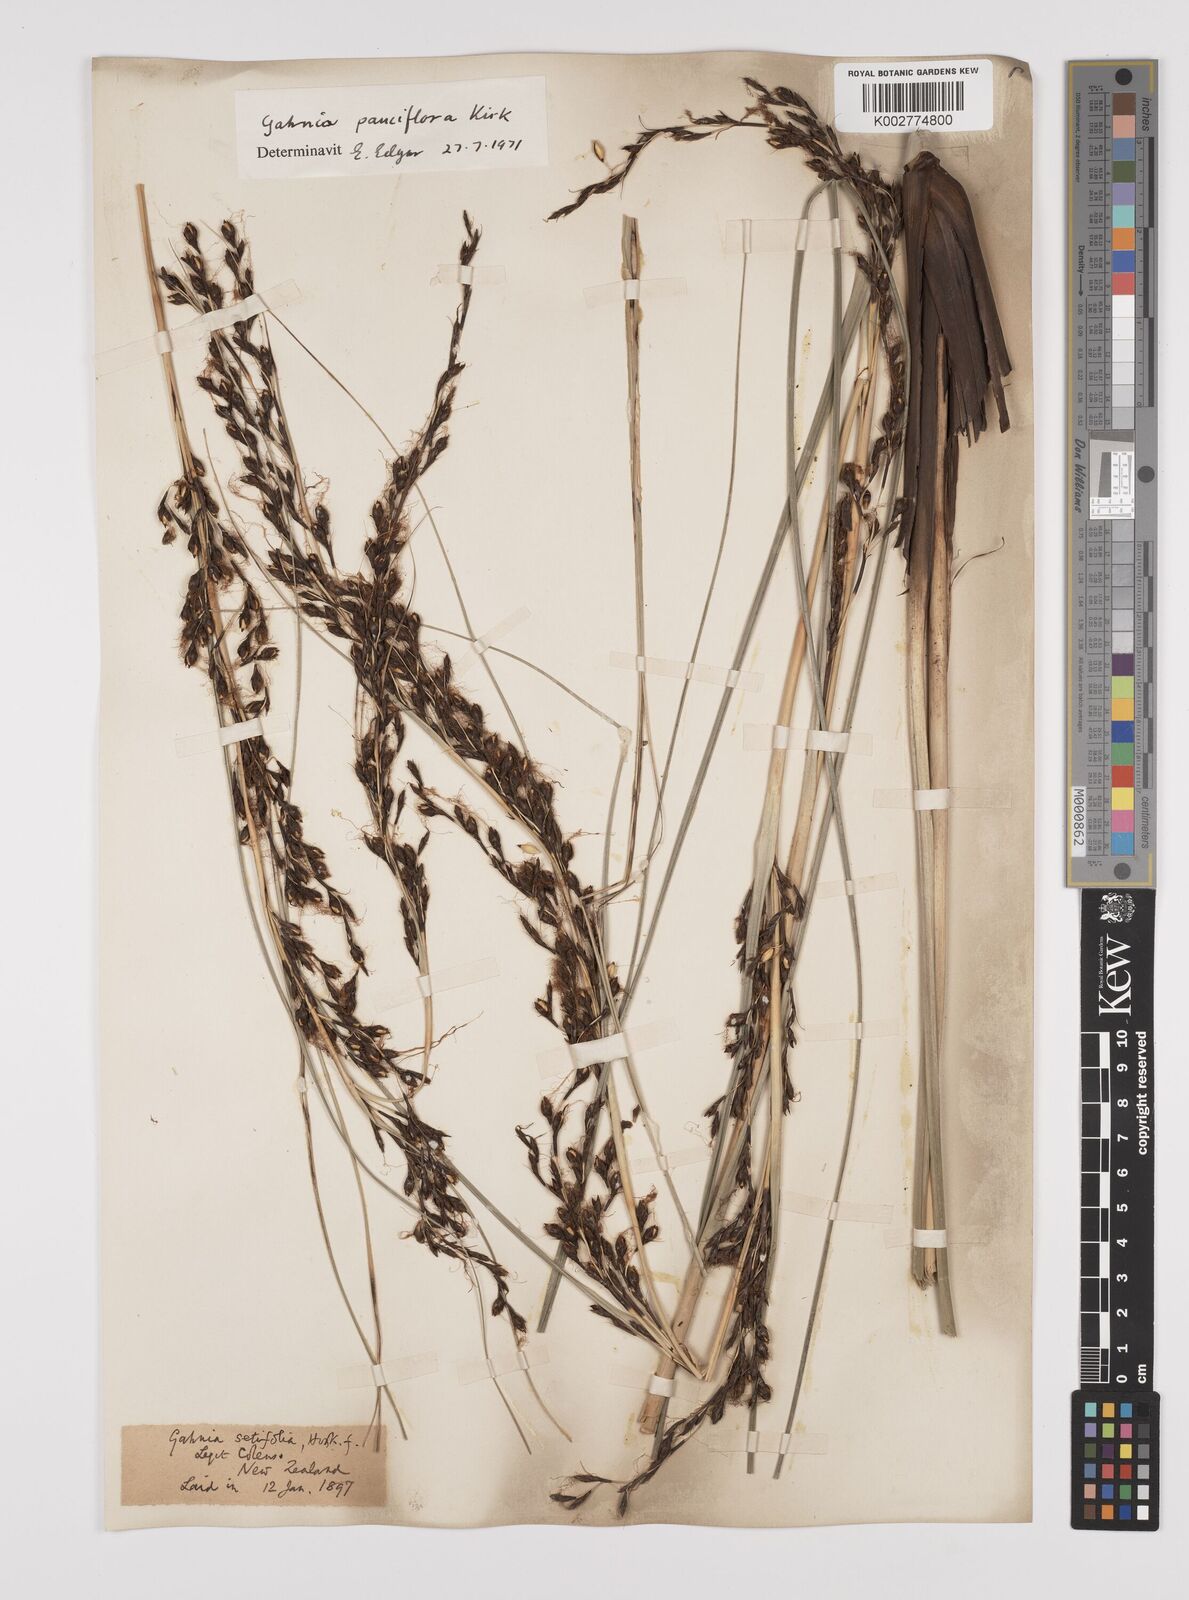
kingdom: Plantae
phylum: Tracheophyta
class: Liliopsida
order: Poales
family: Cyperaceae
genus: Gahnia
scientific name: Gahnia pauciflora
